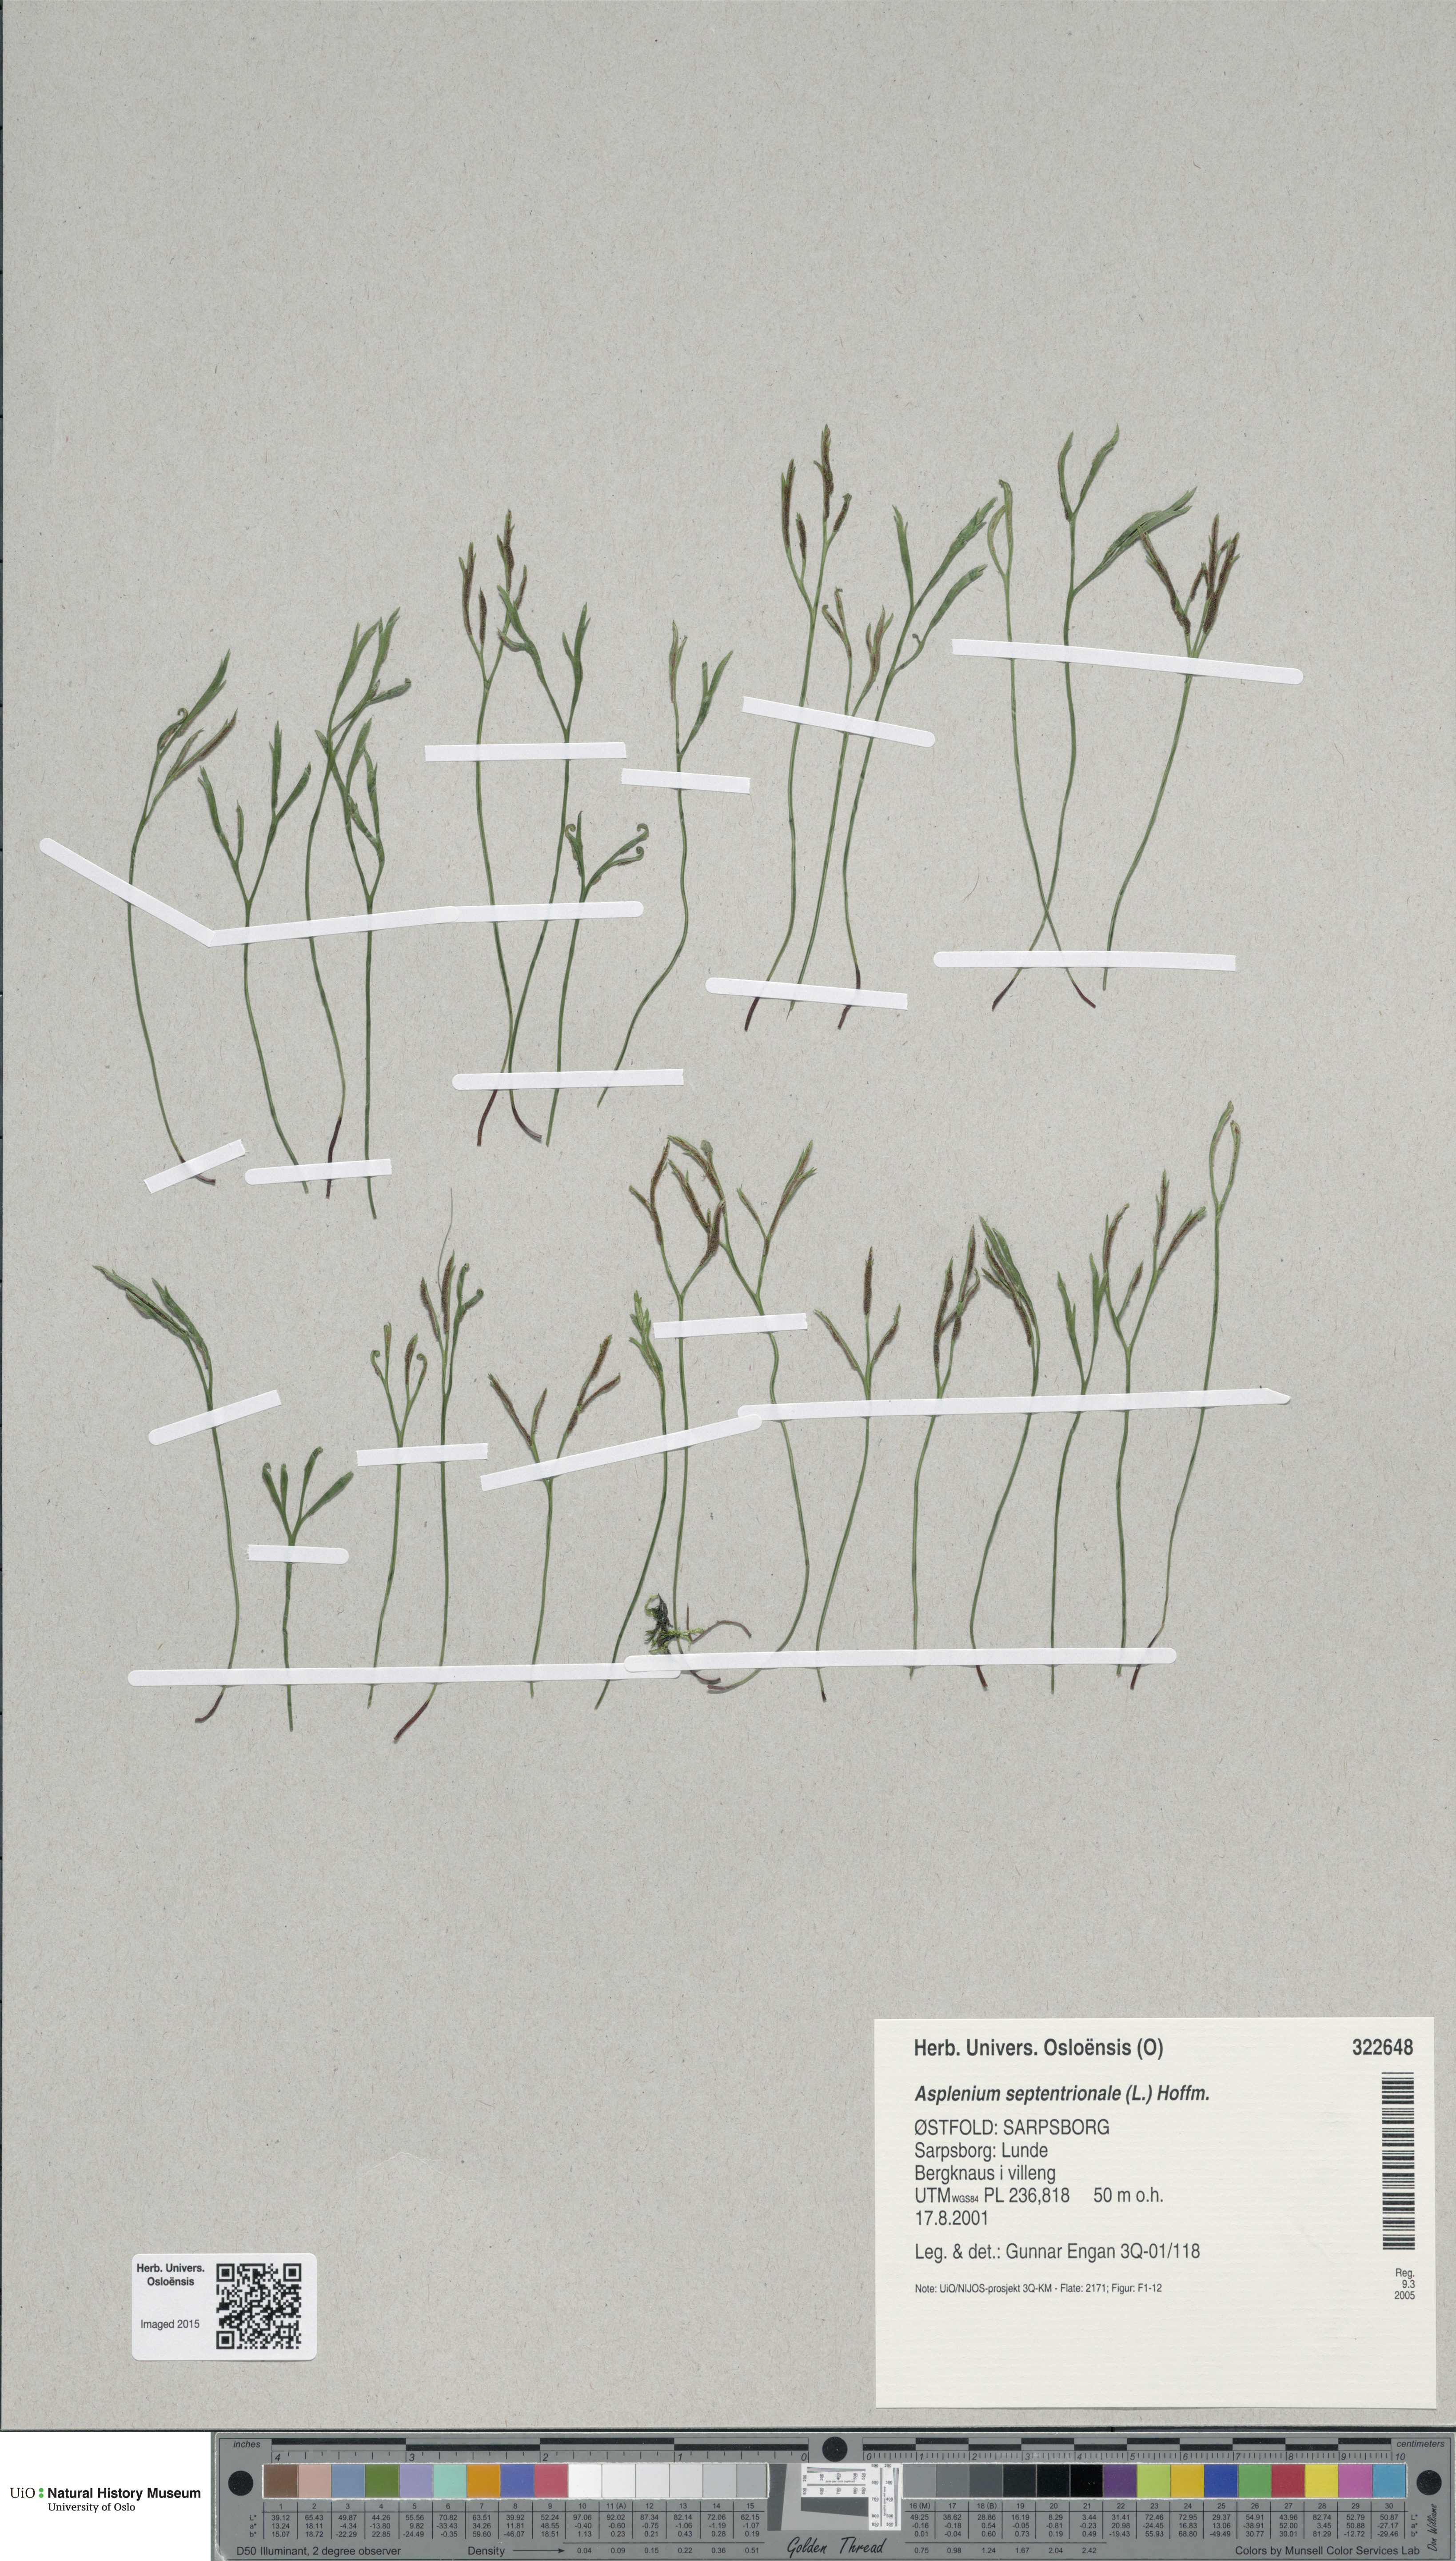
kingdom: Plantae
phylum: Tracheophyta
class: Polypodiopsida
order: Polypodiales
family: Aspleniaceae
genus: Asplenium
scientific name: Asplenium septentrionale
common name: Forked spleenwort
